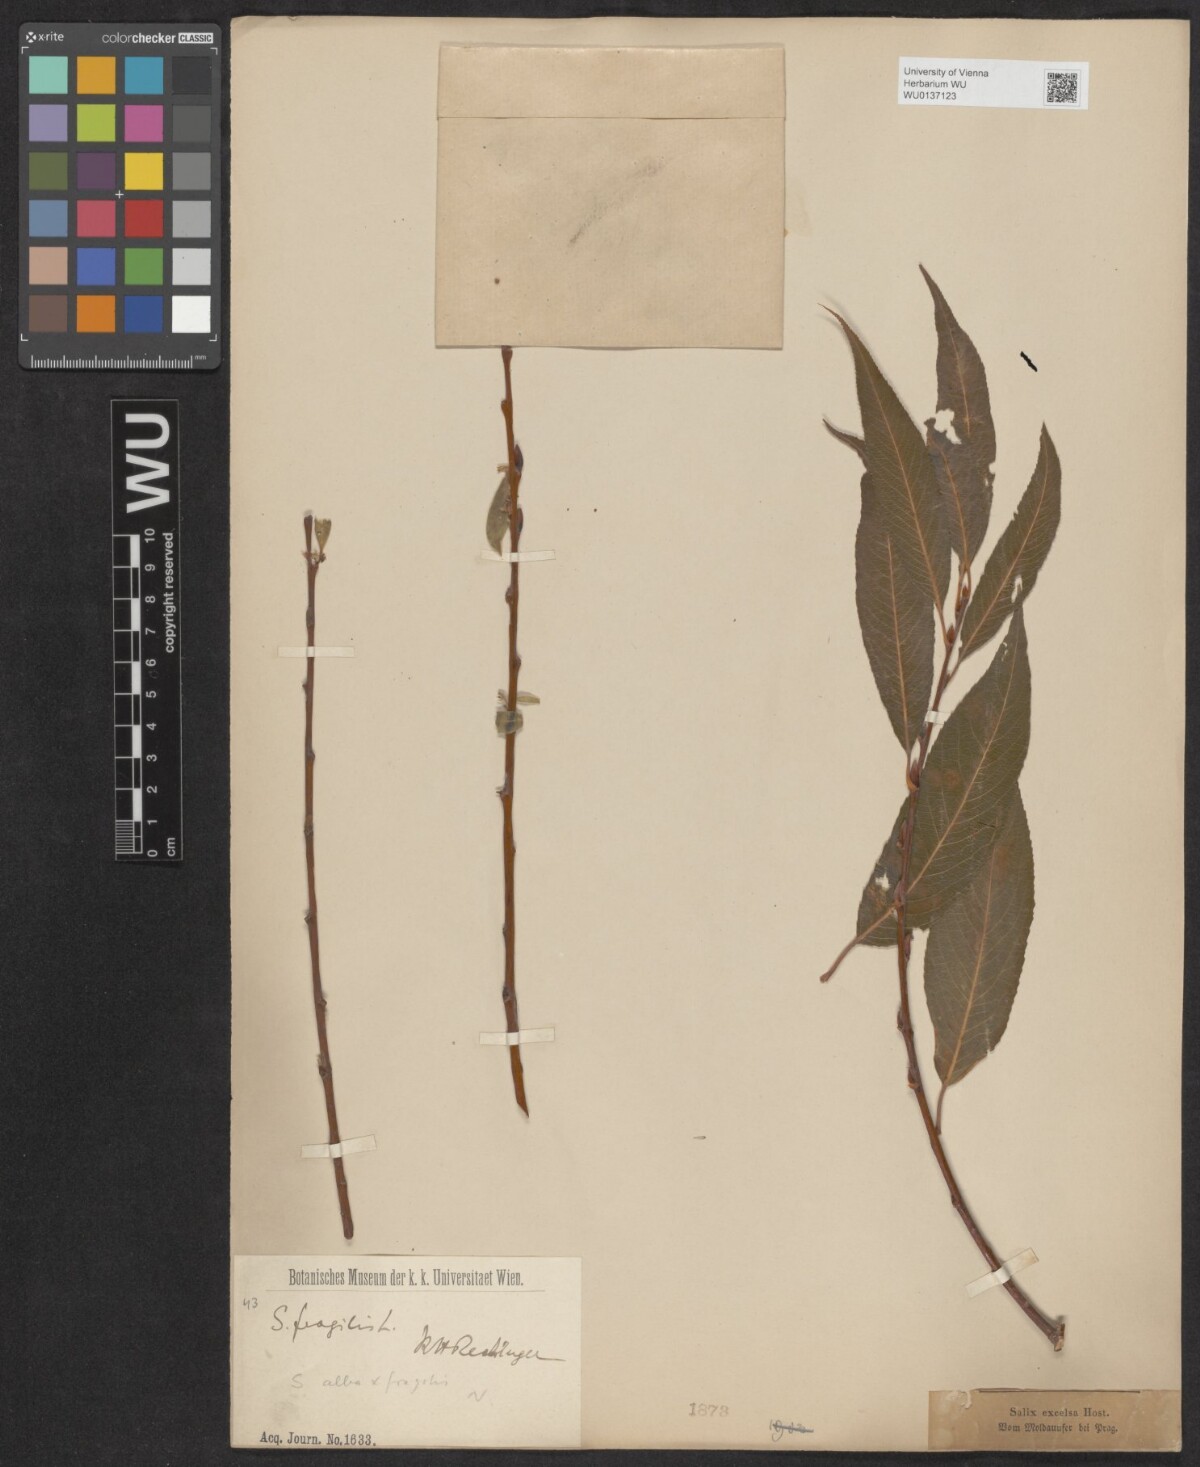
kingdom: Plantae
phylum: Tracheophyta
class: Magnoliopsida
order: Malpighiales
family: Salicaceae
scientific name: Salicaceae
